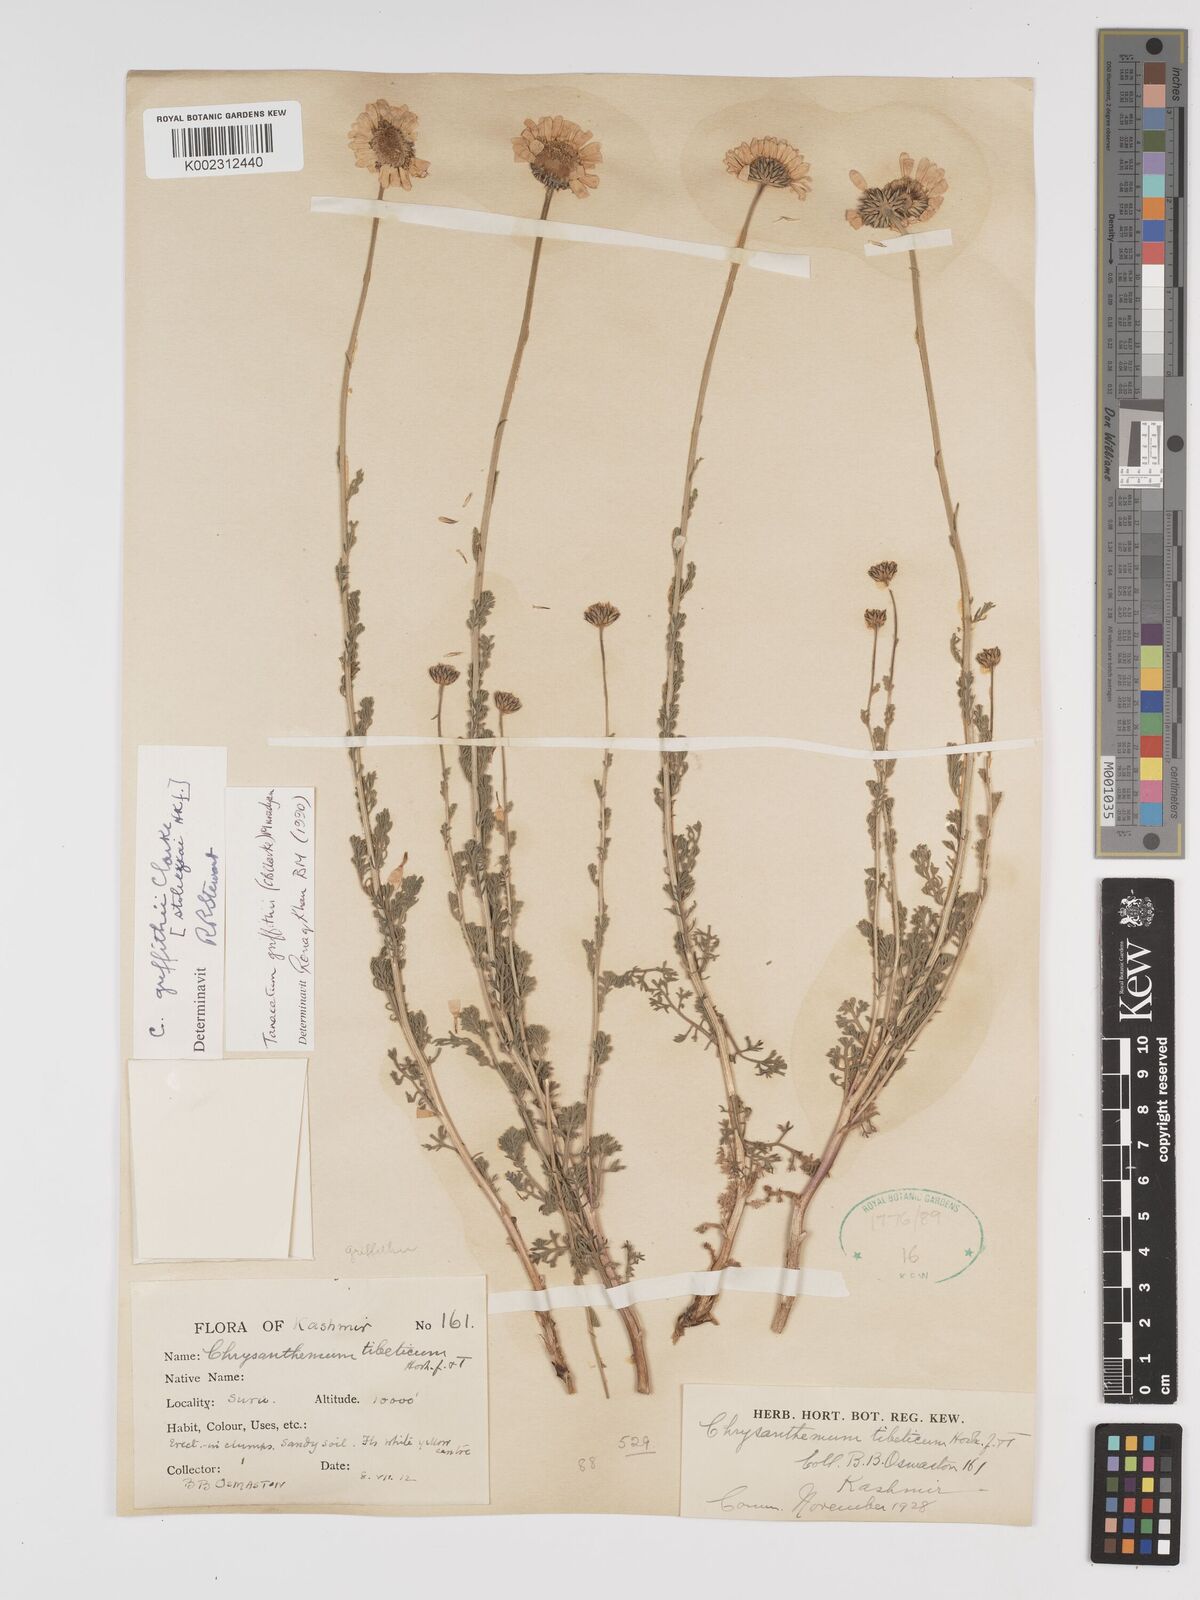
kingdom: Plantae
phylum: Tracheophyta
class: Magnoliopsida
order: Asterales
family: Asteraceae
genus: Tanacetum
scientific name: Tanacetum griffithii
